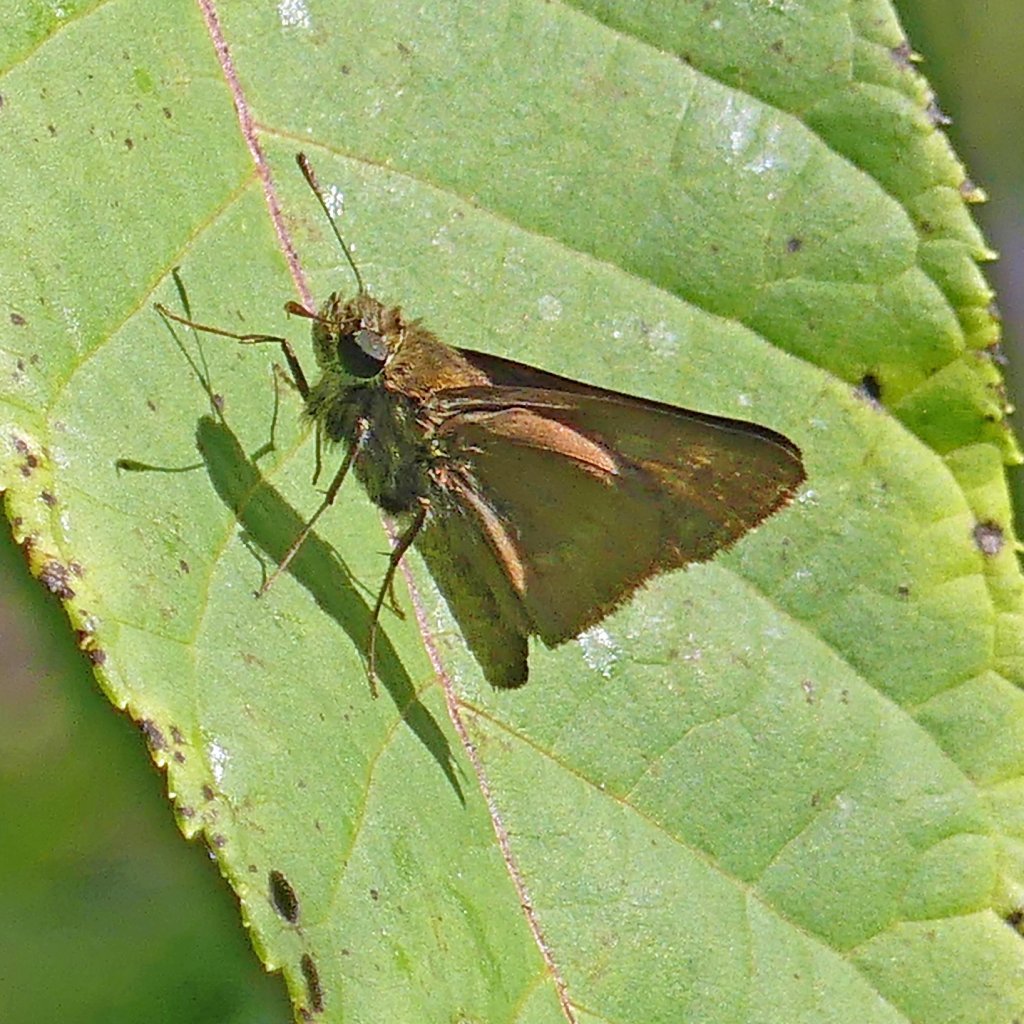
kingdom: Animalia
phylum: Arthropoda
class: Insecta
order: Lepidoptera
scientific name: Lepidoptera
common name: Butterflies
